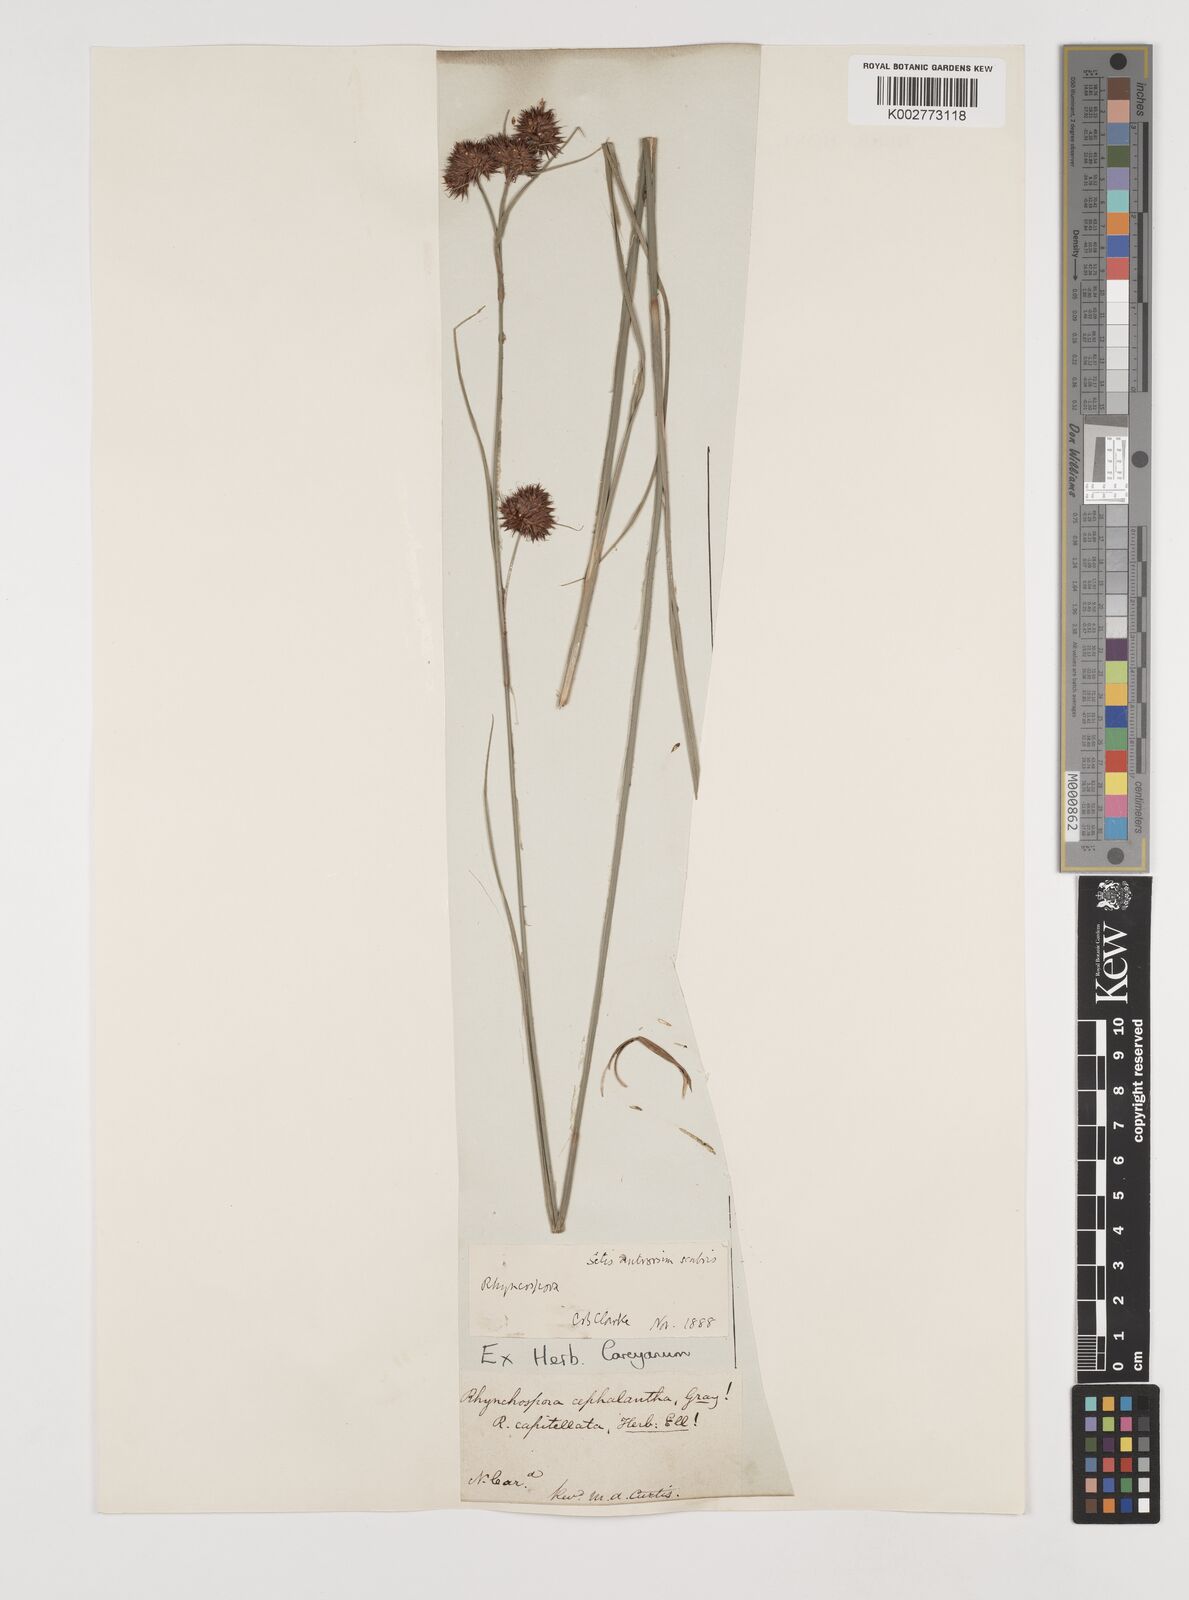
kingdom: Plantae
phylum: Tracheophyta
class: Liliopsida
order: Poales
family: Cyperaceae
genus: Rhynchospora
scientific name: Rhynchospora
